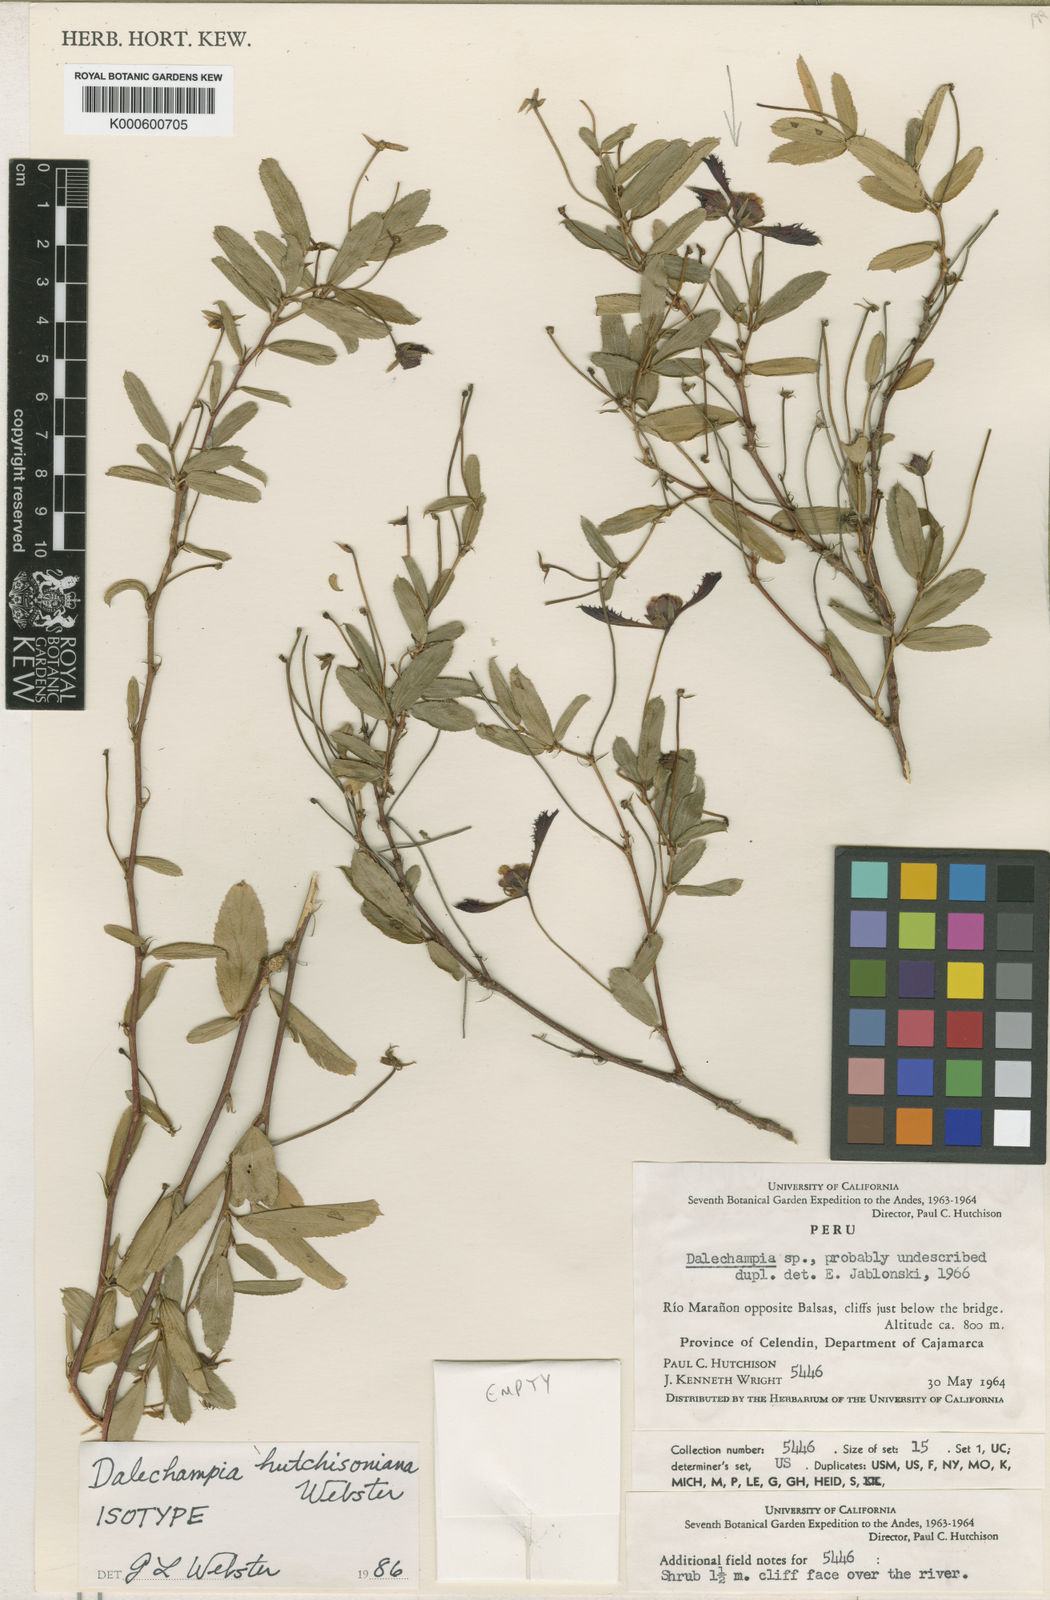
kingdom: Plantae
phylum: Tracheophyta
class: Magnoliopsida
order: Malpighiales
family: Euphorbiaceae
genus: Dalechampia
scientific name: Dalechampia
